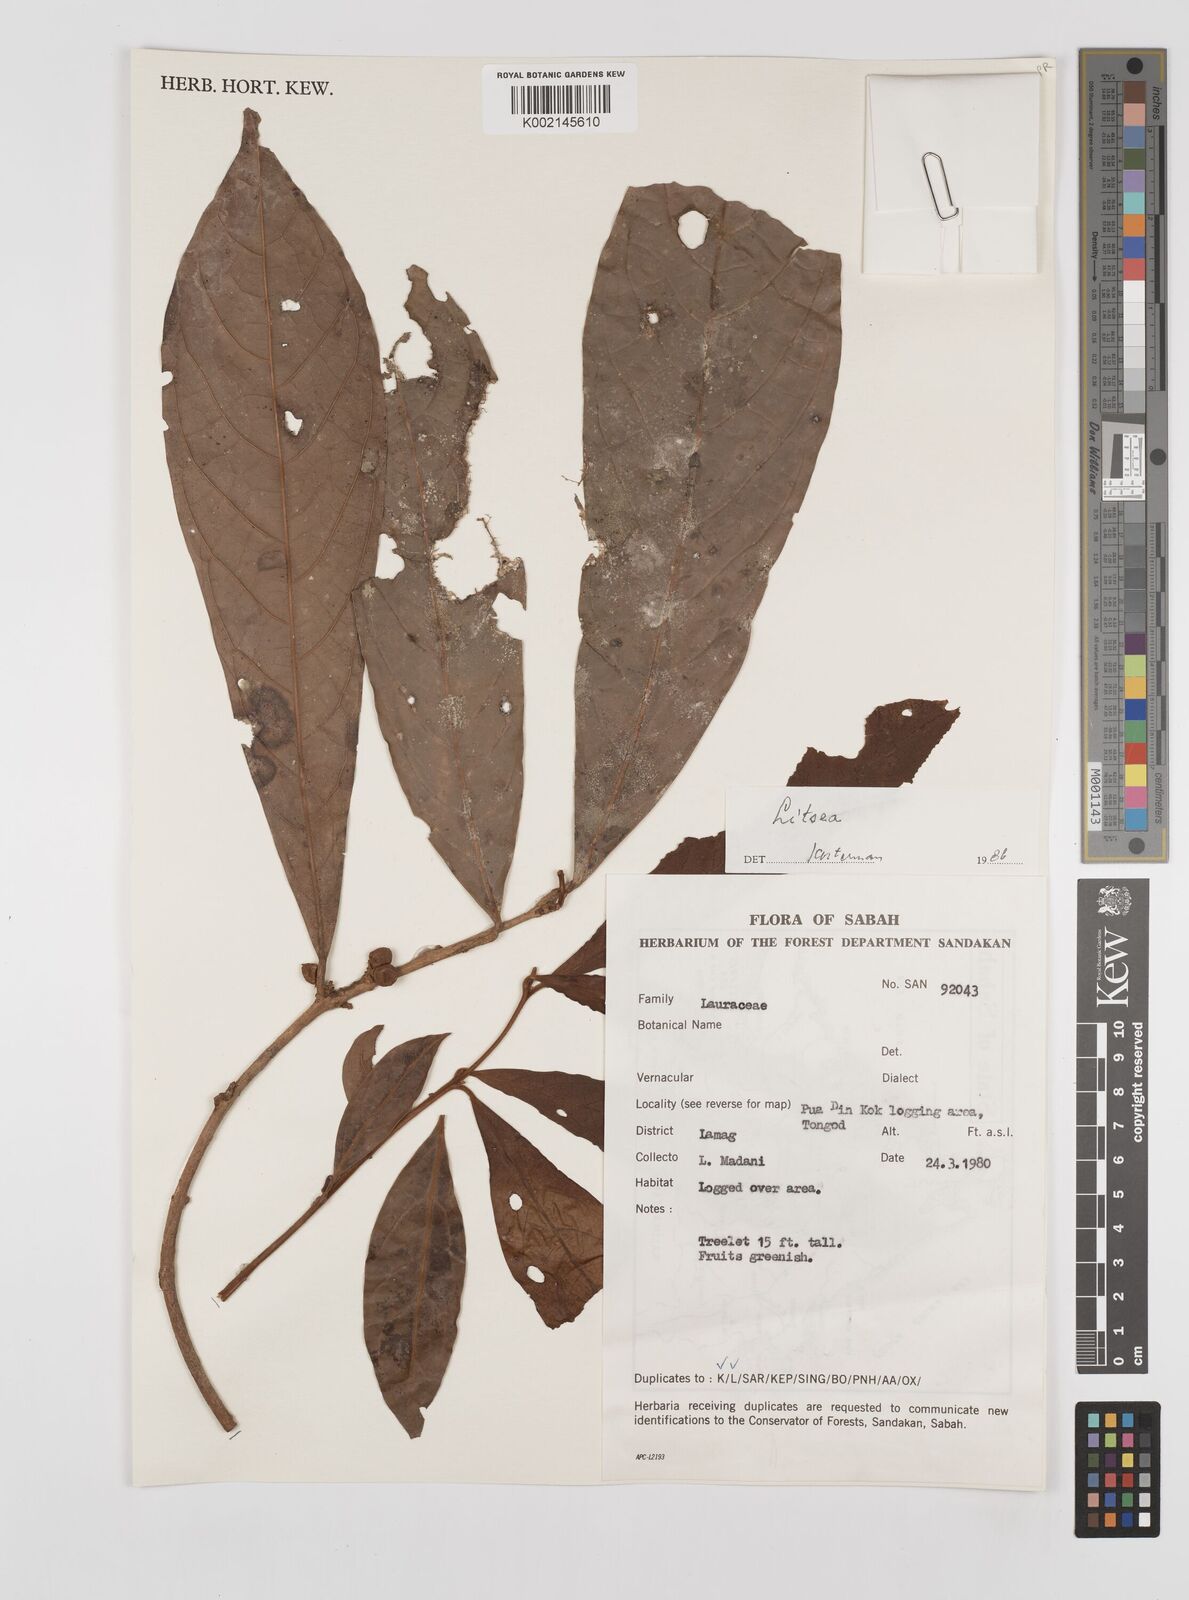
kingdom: Plantae
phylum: Tracheophyta
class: Magnoliopsida
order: Laurales
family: Lauraceae
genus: Litsea
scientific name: Litsea
